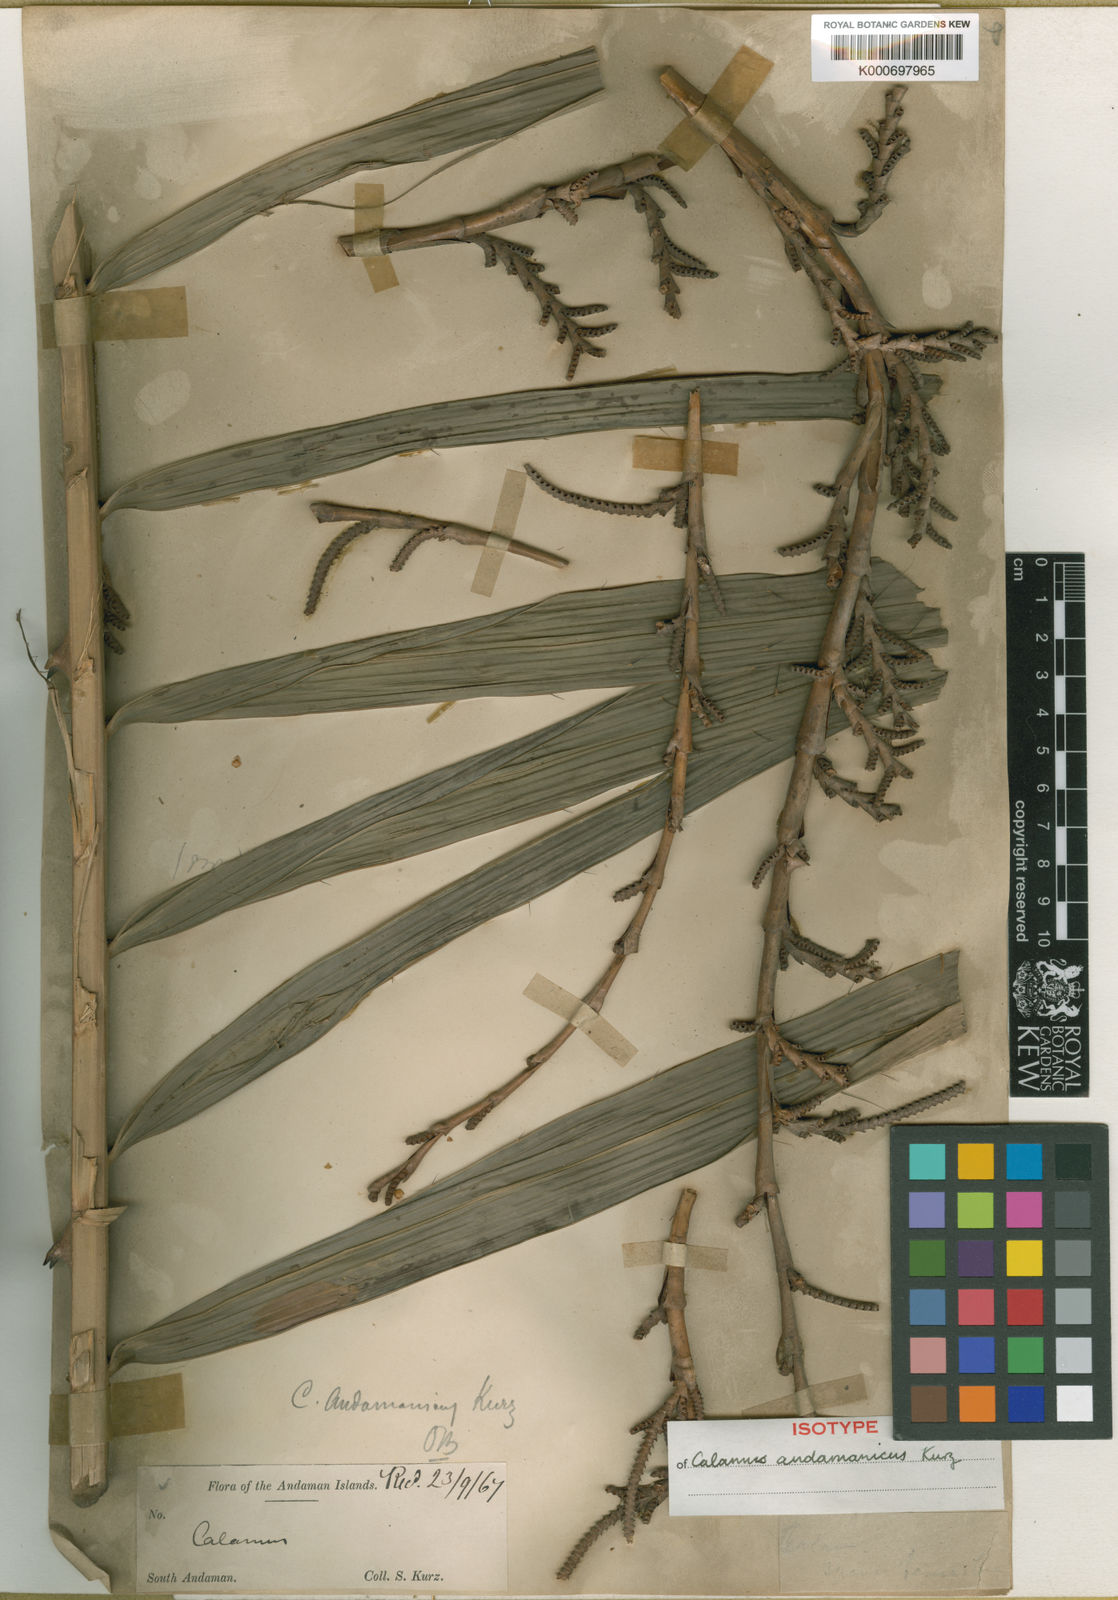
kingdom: Plantae
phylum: Tracheophyta
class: Liliopsida
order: Arecales
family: Arecaceae
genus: Calamus
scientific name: Calamus andamanicus
